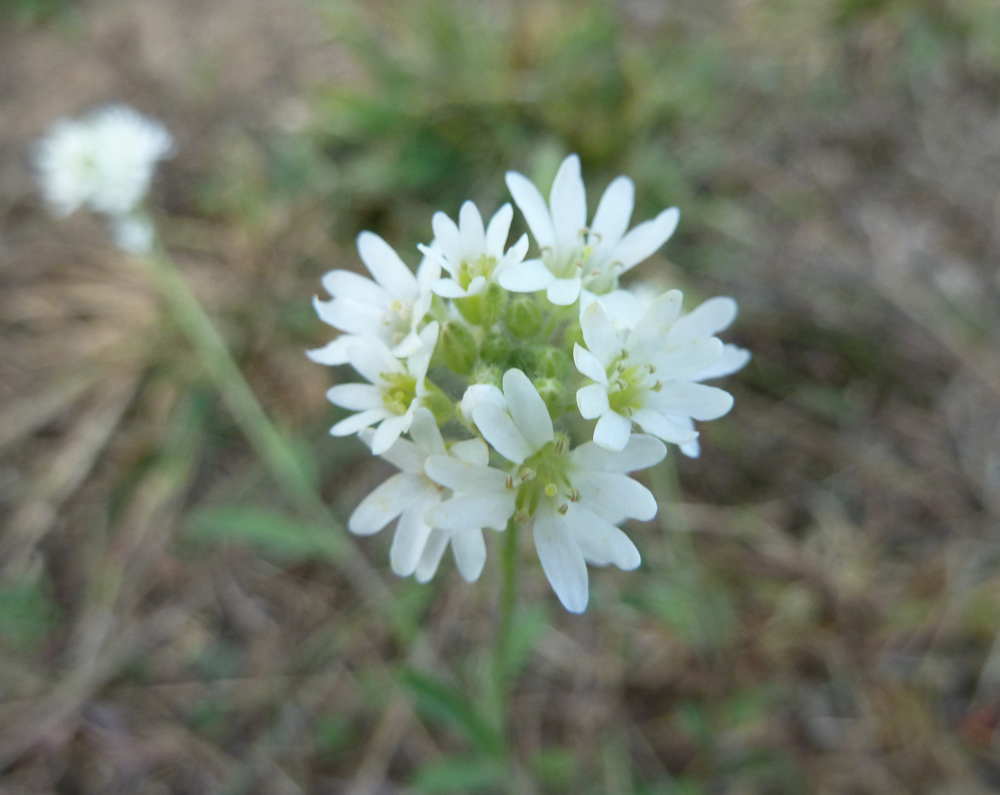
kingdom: Plantae
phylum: Tracheophyta
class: Magnoliopsida
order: Brassicales
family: Brassicaceae
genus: Berteroa
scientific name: Berteroa incana
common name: Hoary alison
